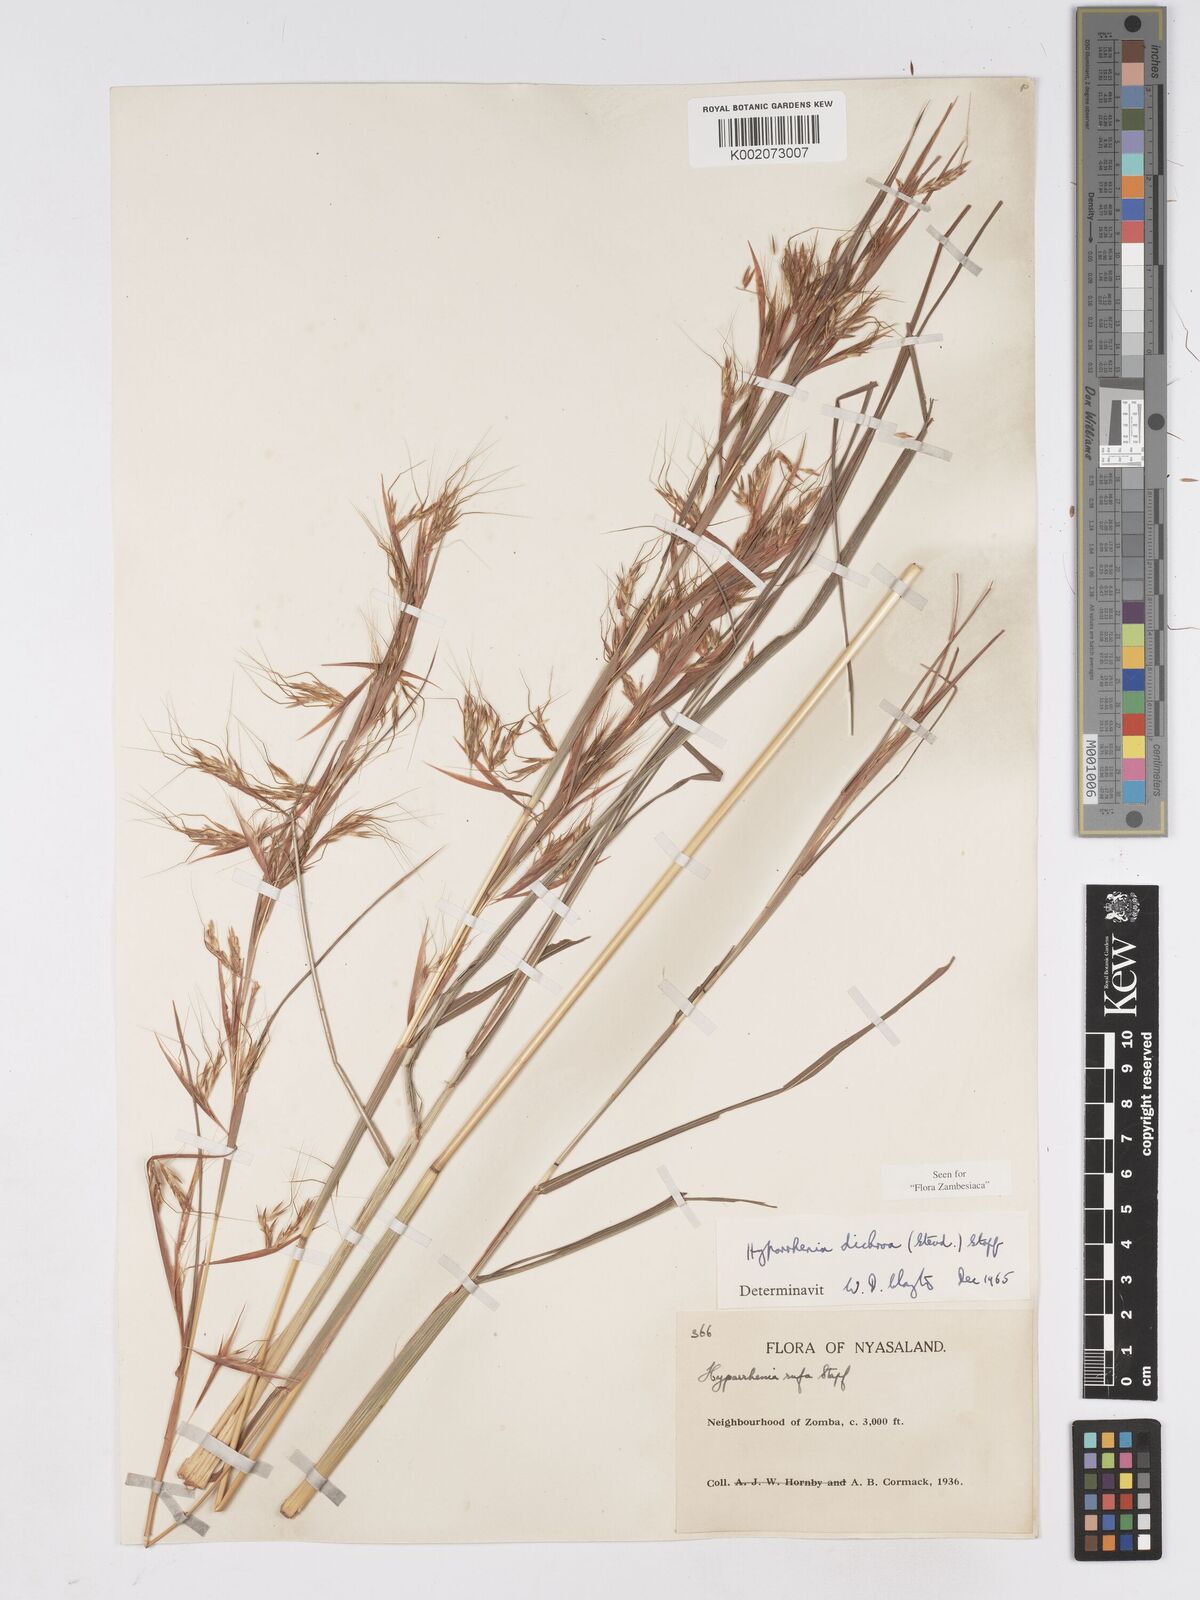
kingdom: Plantae
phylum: Tracheophyta
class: Liliopsida
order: Poales
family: Poaceae
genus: Hyparrhenia
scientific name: Hyparrhenia dichroa
